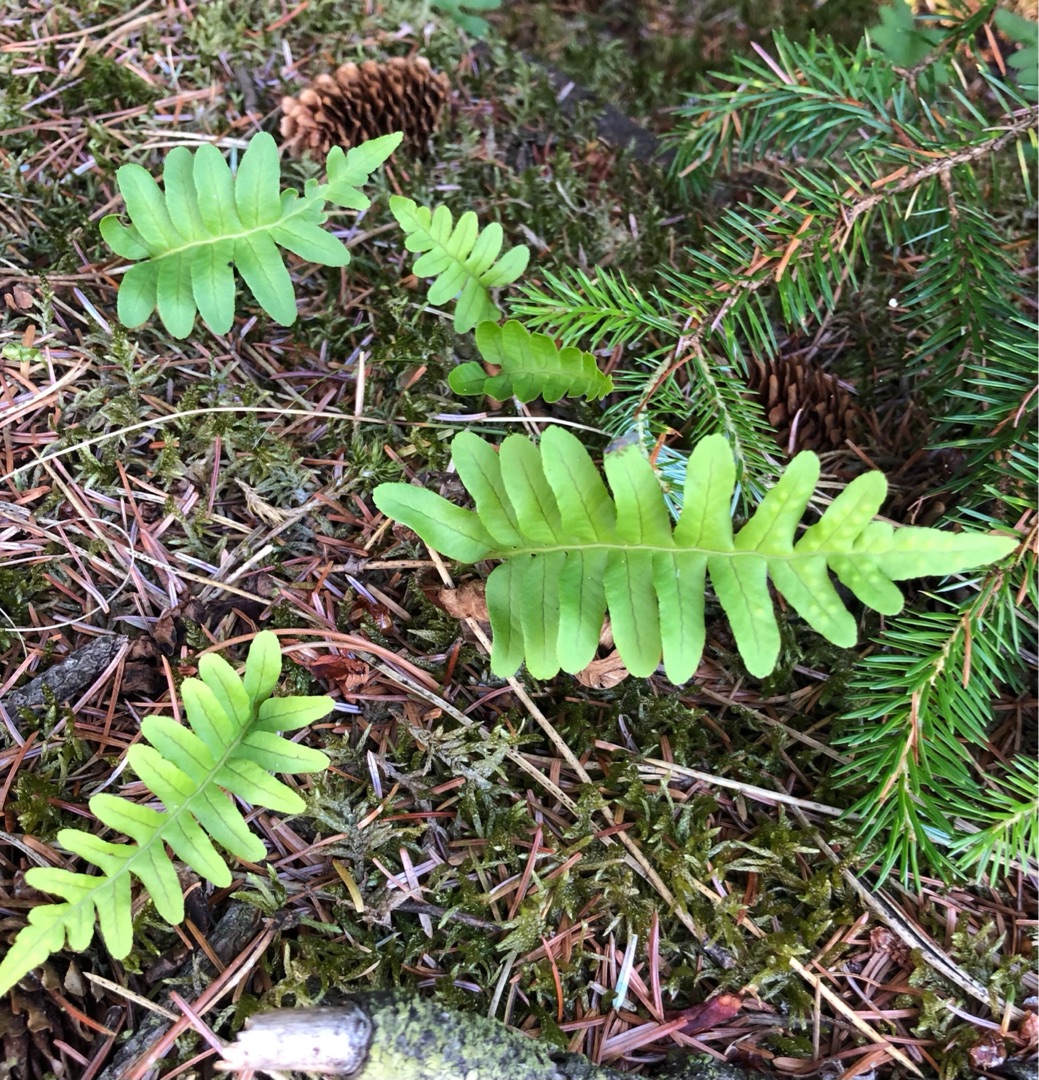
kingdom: Plantae
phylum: Tracheophyta
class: Polypodiopsida
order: Polypodiales
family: Polypodiaceae
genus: Polypodium
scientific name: Polypodium vulgare
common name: Almindelig engelsød
